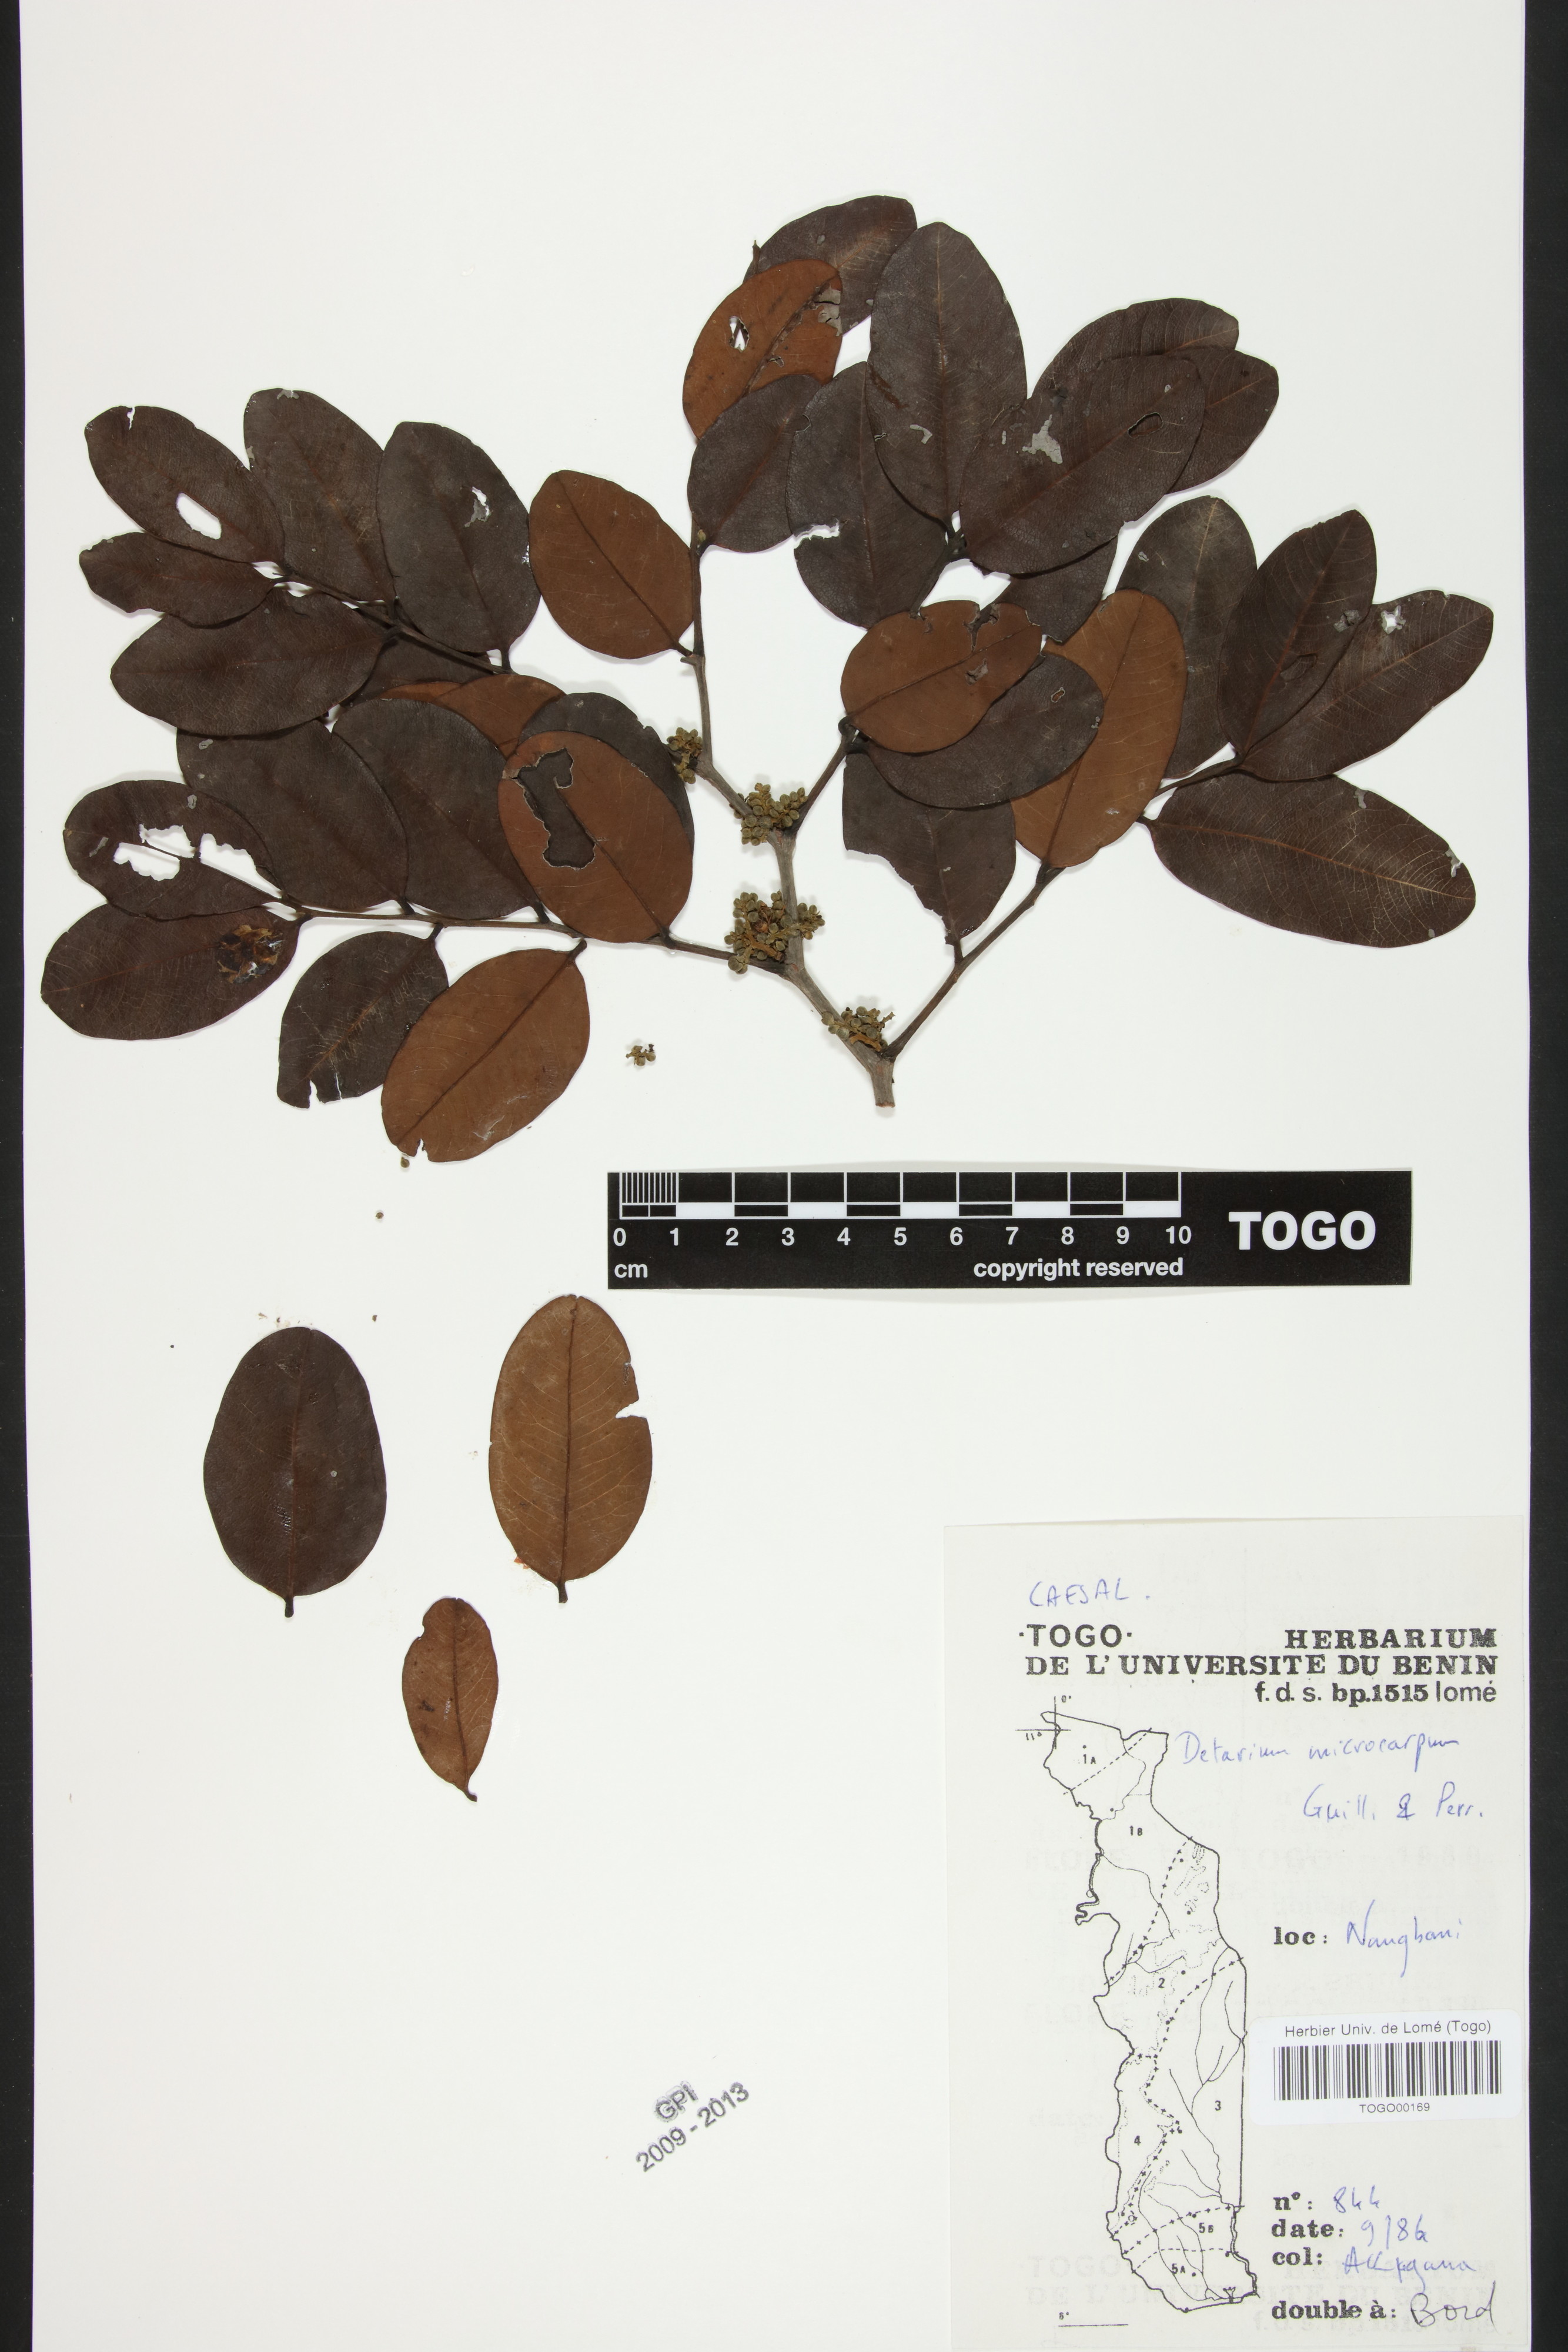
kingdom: Plantae
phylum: Tracheophyta
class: Magnoliopsida
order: Fabales
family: Fabaceae
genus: Detarium
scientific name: Detarium microcarpum
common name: Sweet dattock
